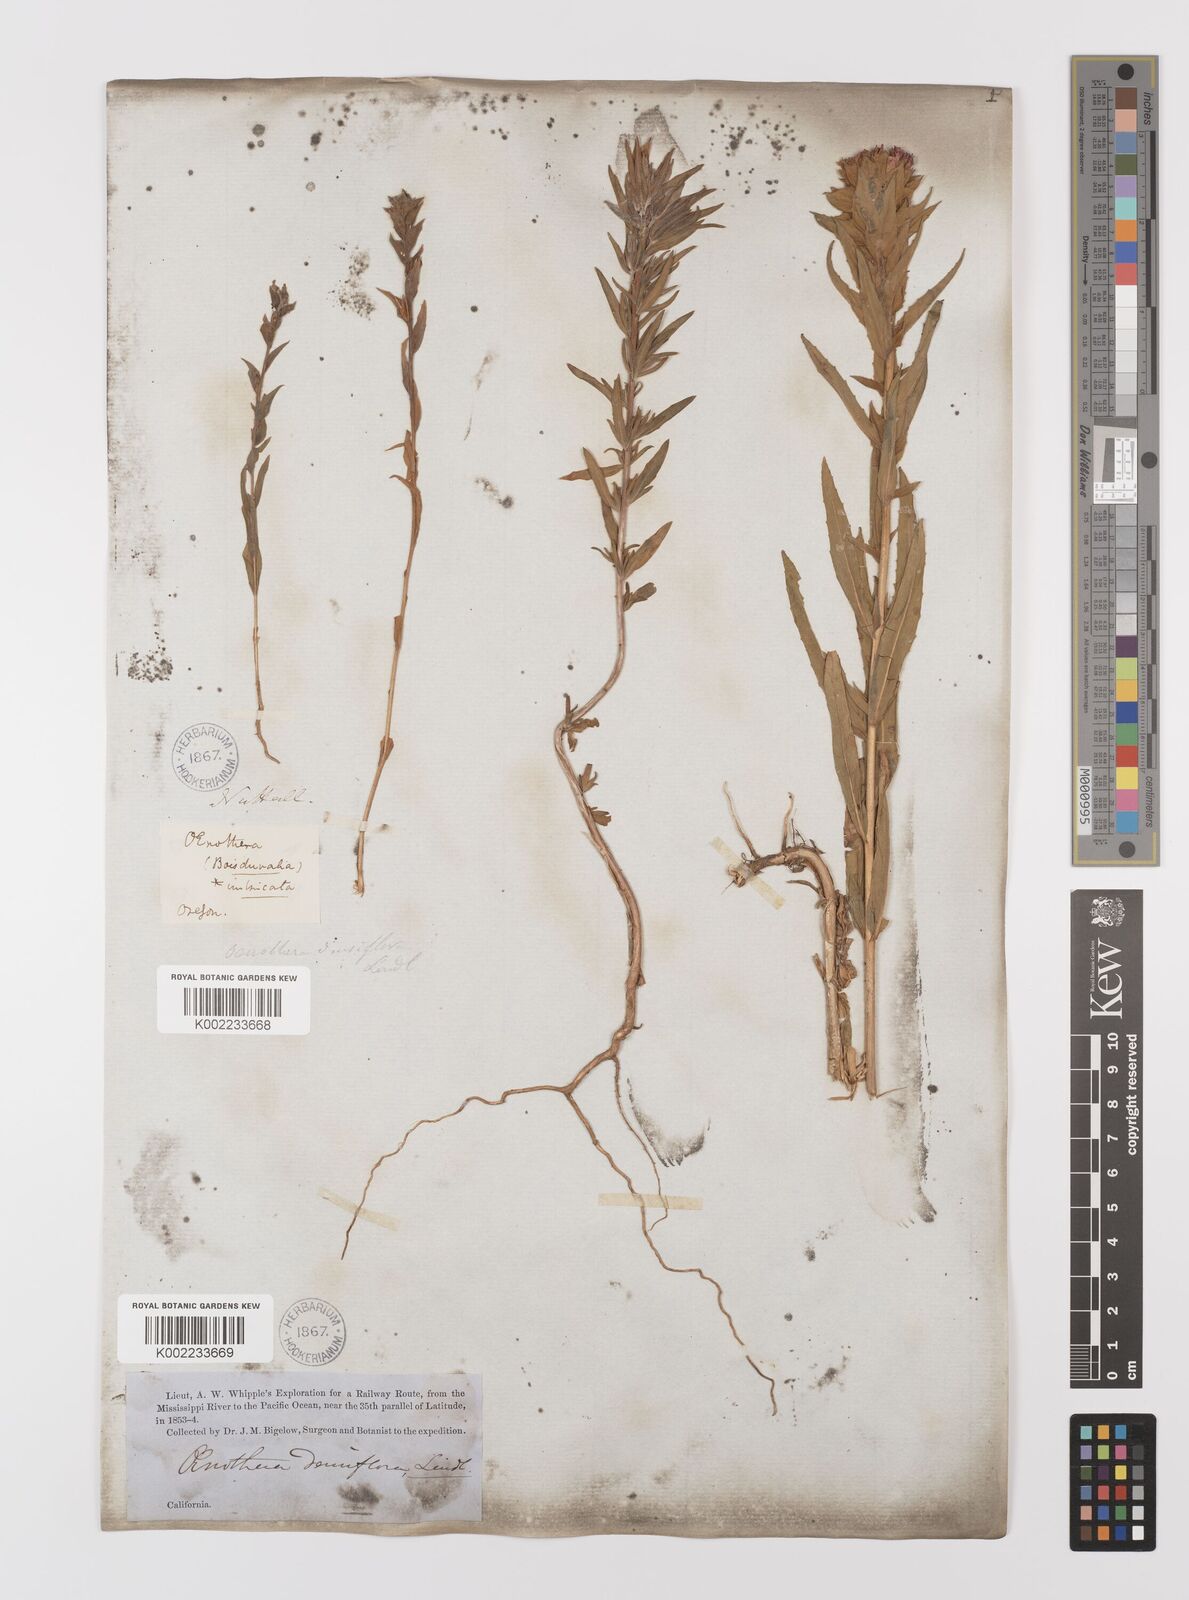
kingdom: Plantae
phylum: Tracheophyta
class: Magnoliopsida
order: Myrtales
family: Onagraceae
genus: Epilobium
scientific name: Epilobium densiflorum
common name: Dense spike-primrose
